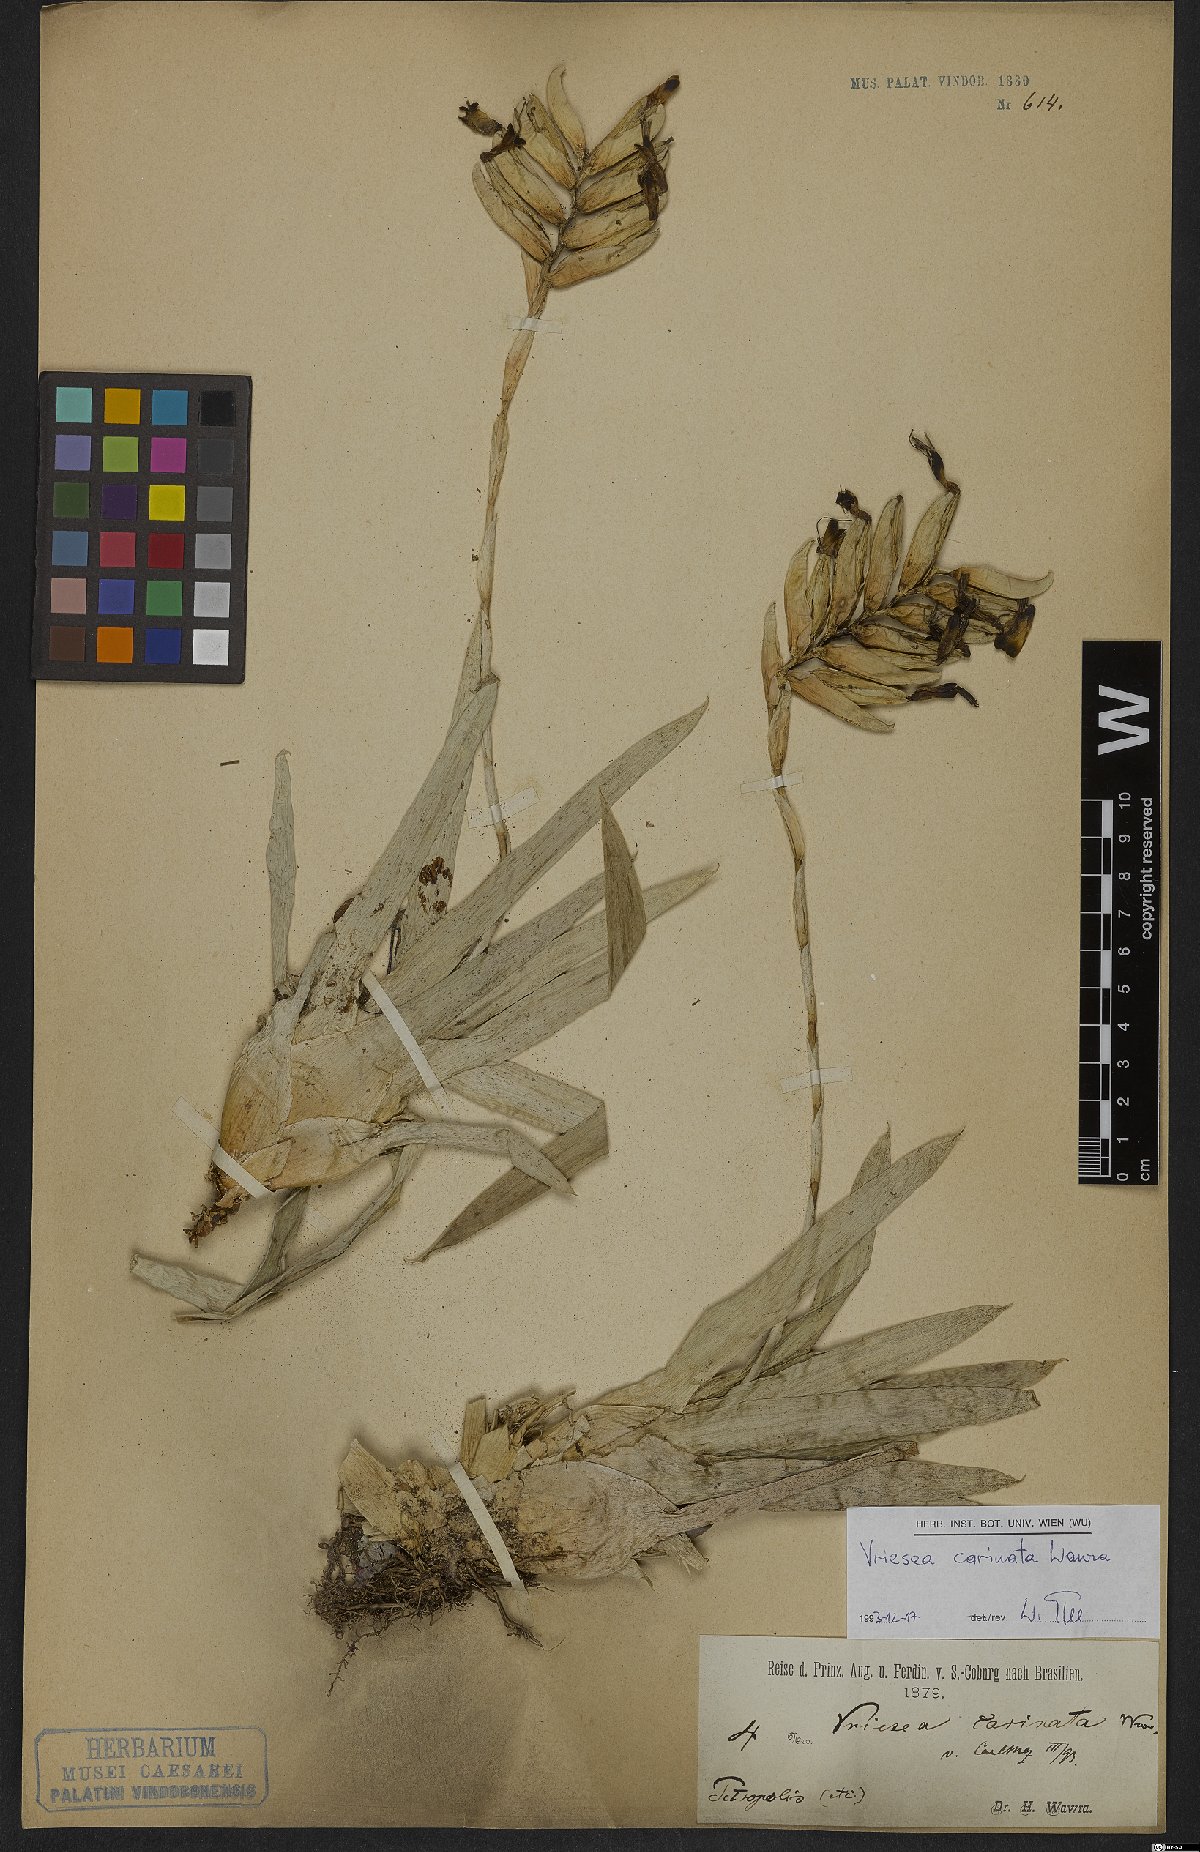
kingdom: Plantae
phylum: Tracheophyta
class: Liliopsida
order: Poales
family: Bromeliaceae
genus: Vriesea
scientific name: Vriesea carinata
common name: Lobster-claws
